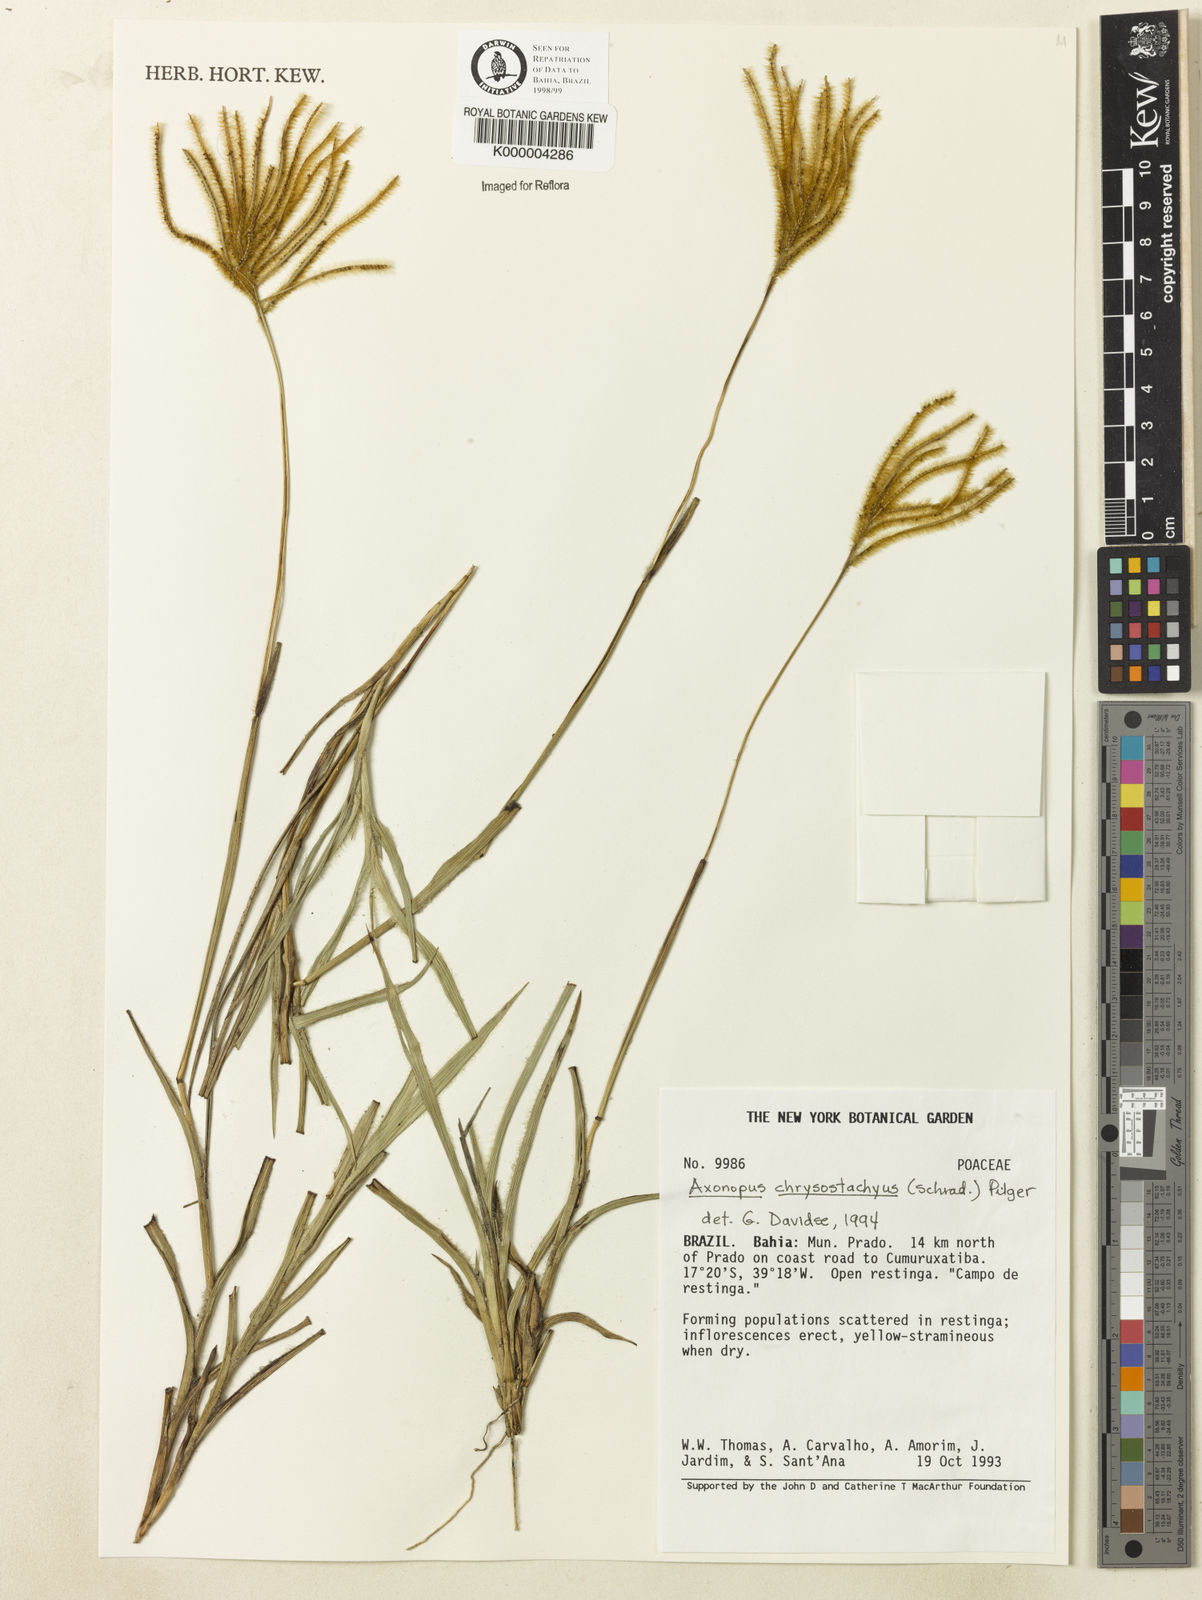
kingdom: Plantae
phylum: Tracheophyta
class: Liliopsida
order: Poales
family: Poaceae
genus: Axonopus
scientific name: Axonopus
